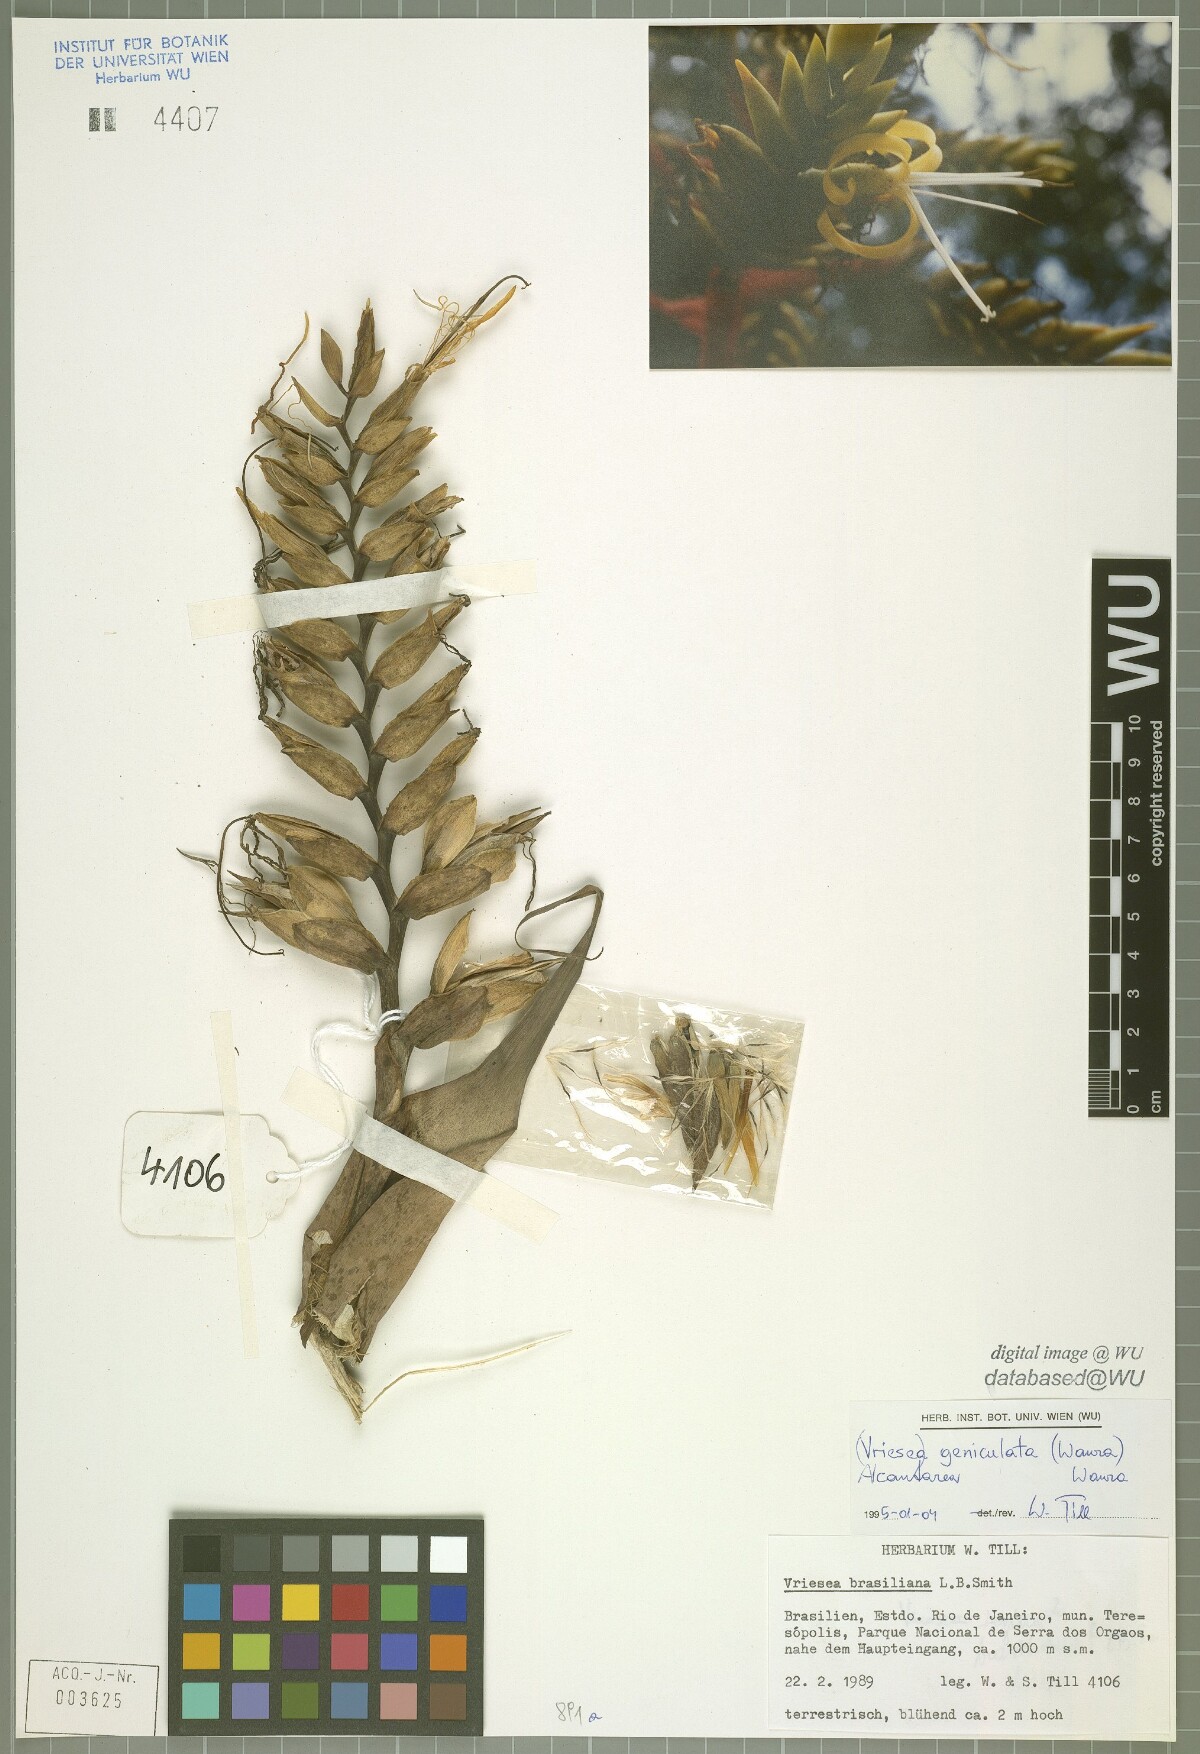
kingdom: Plantae
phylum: Tracheophyta
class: Liliopsida
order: Poales
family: Bromeliaceae
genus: Alcantarea
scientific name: Alcantarea geniculata
